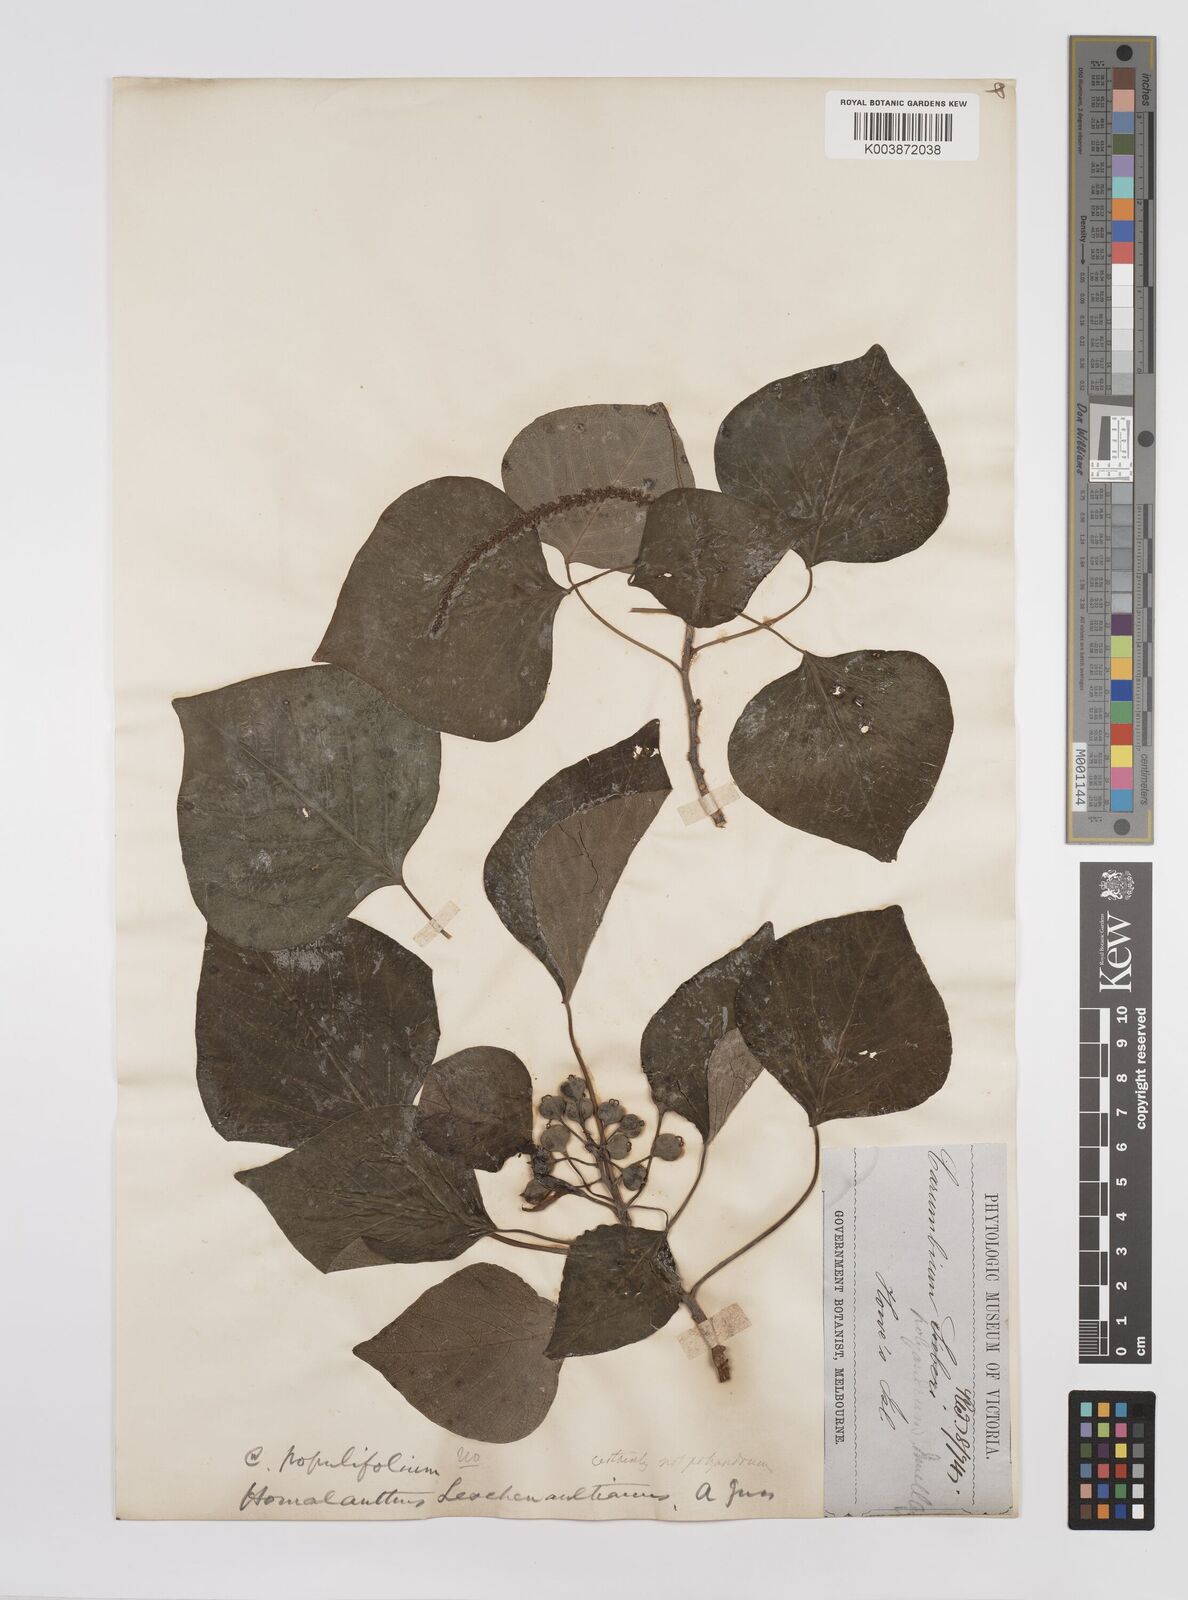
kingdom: Plantae
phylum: Tracheophyta
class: Magnoliopsida
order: Malpighiales
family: Euphorbiaceae
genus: Homalanthus
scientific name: Homalanthus populifolius
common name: Queensland poplar
